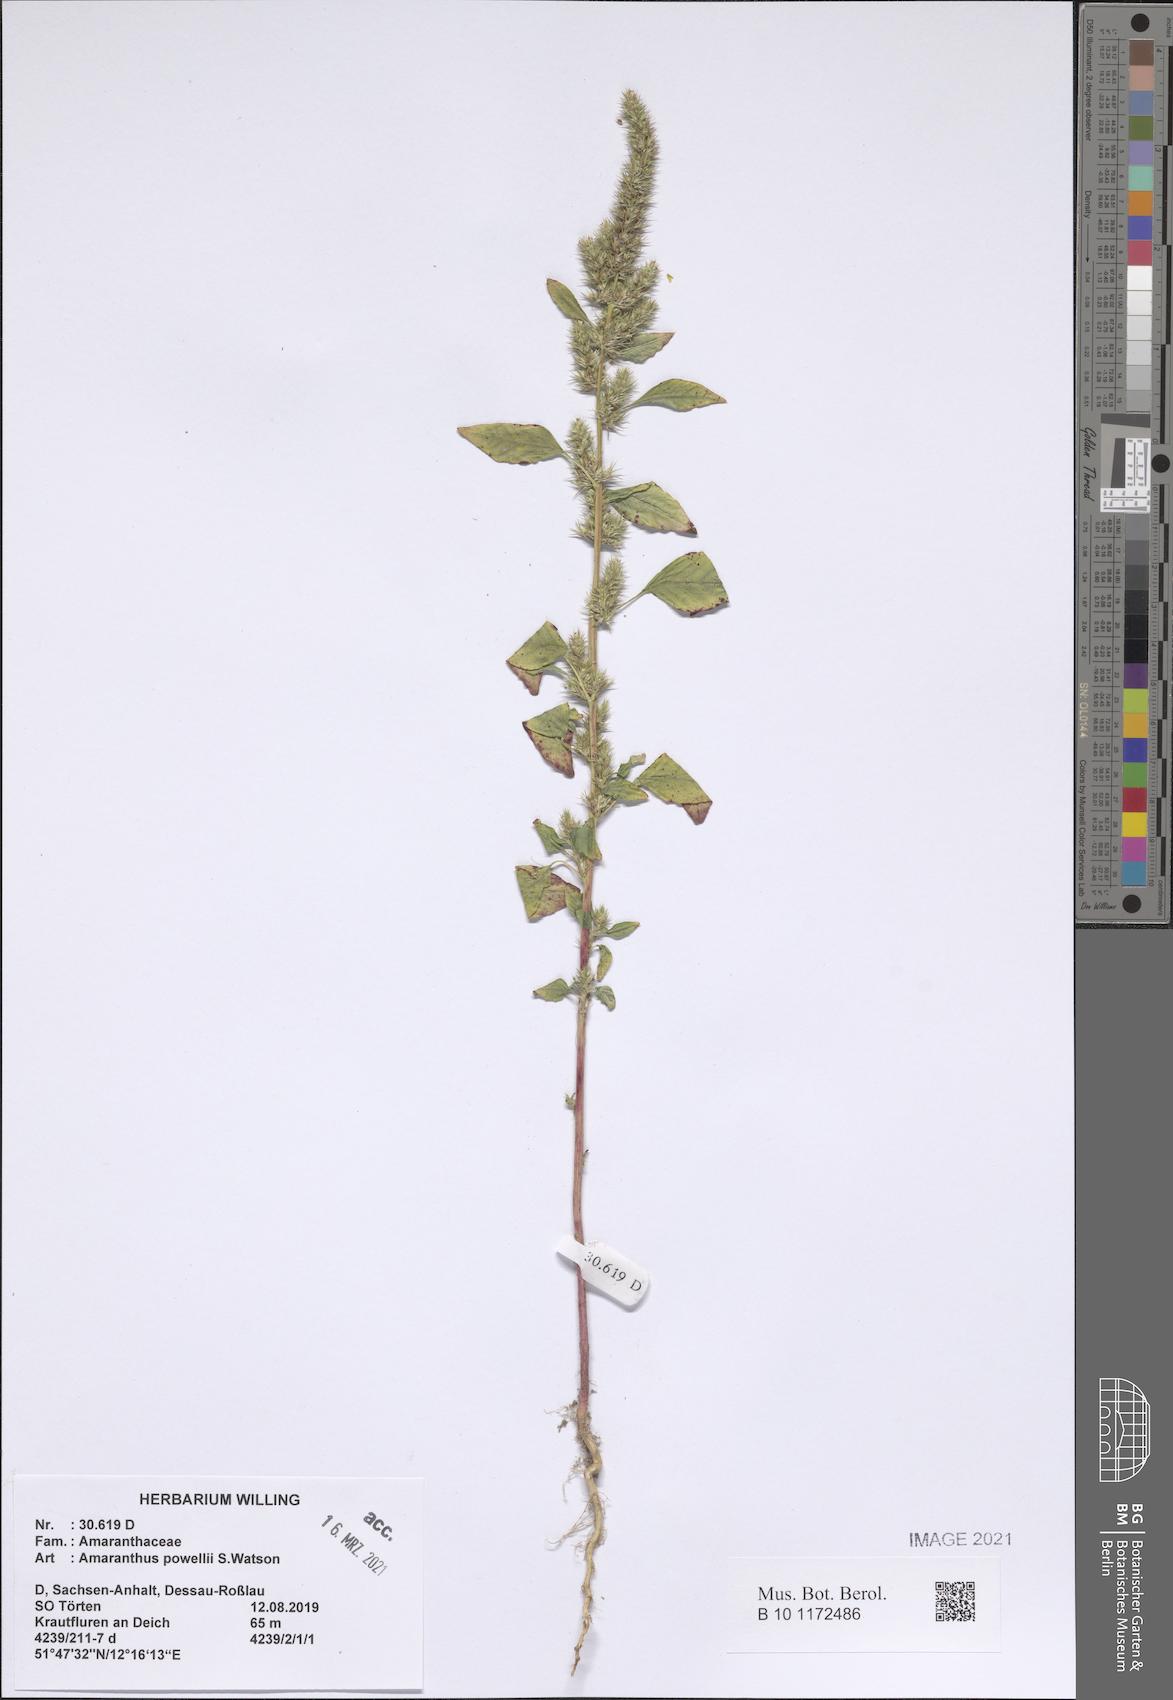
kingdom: Plantae
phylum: Tracheophyta
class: Magnoliopsida
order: Caryophyllales
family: Amaranthaceae
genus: Amaranthus
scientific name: Amaranthus powellii
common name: Powell's amaranth
